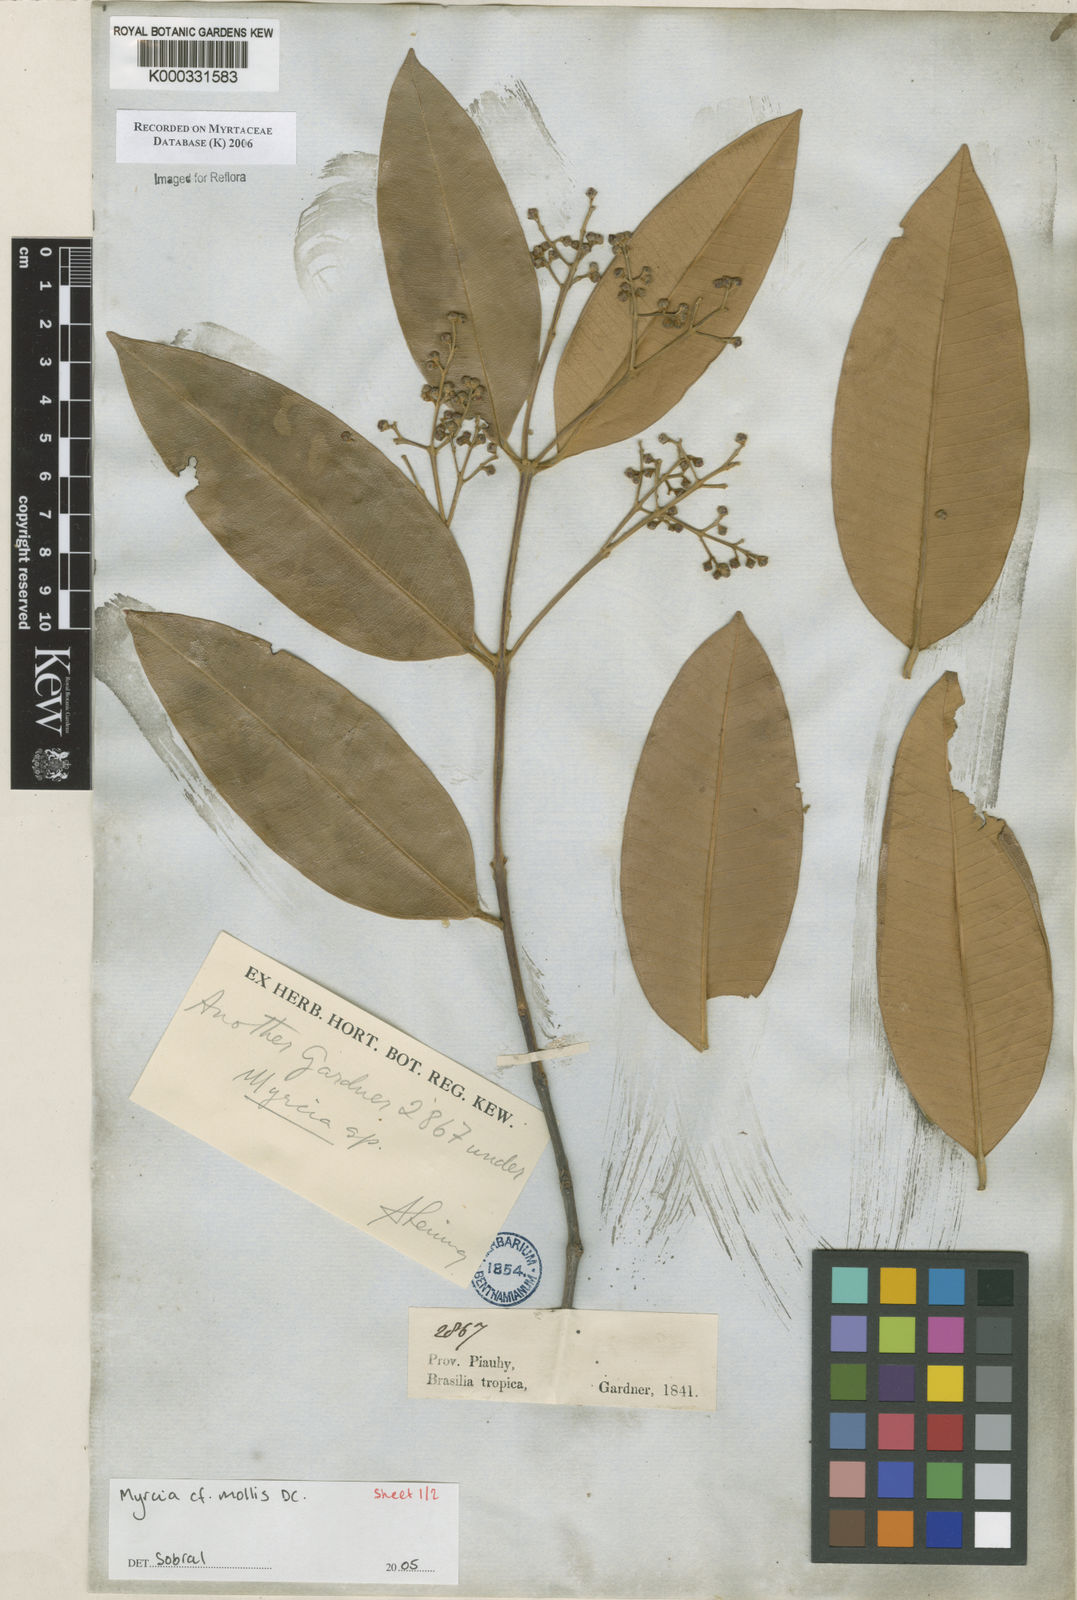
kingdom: Plantae
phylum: Tracheophyta
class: Magnoliopsida
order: Myrtales
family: Myrtaceae
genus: Myrcia
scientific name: Myrcia mollis
